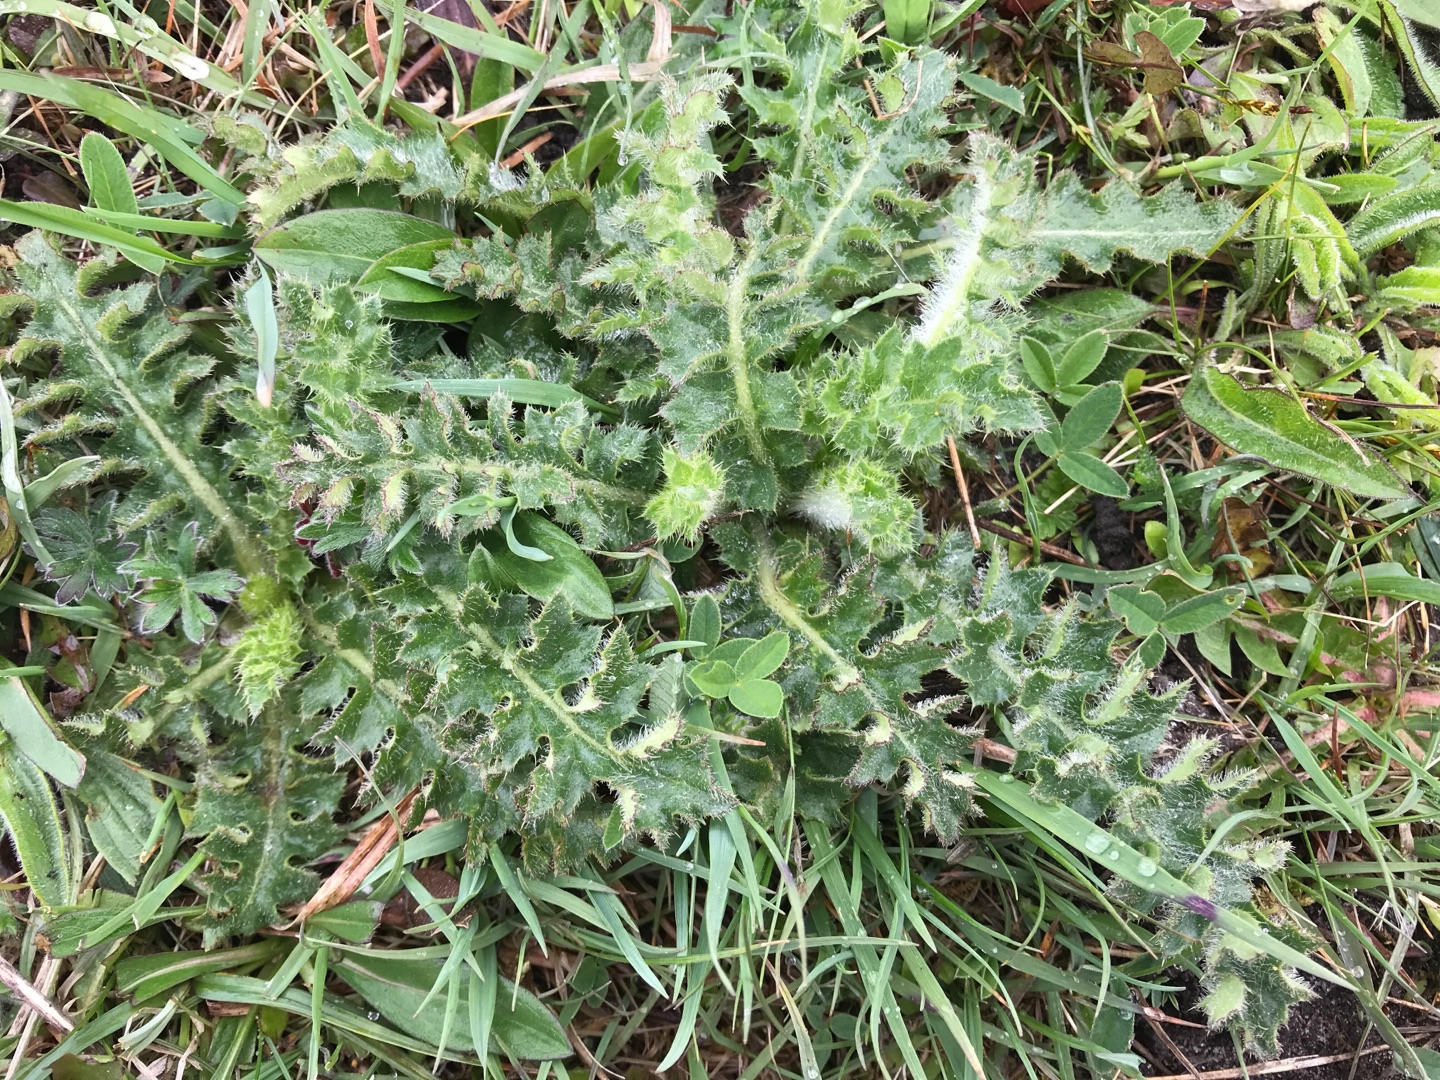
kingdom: Plantae
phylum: Tracheophyta
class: Magnoliopsida
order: Asterales
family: Asteraceae
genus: Cirsium
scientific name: Cirsium acaule
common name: Lav tidsel
